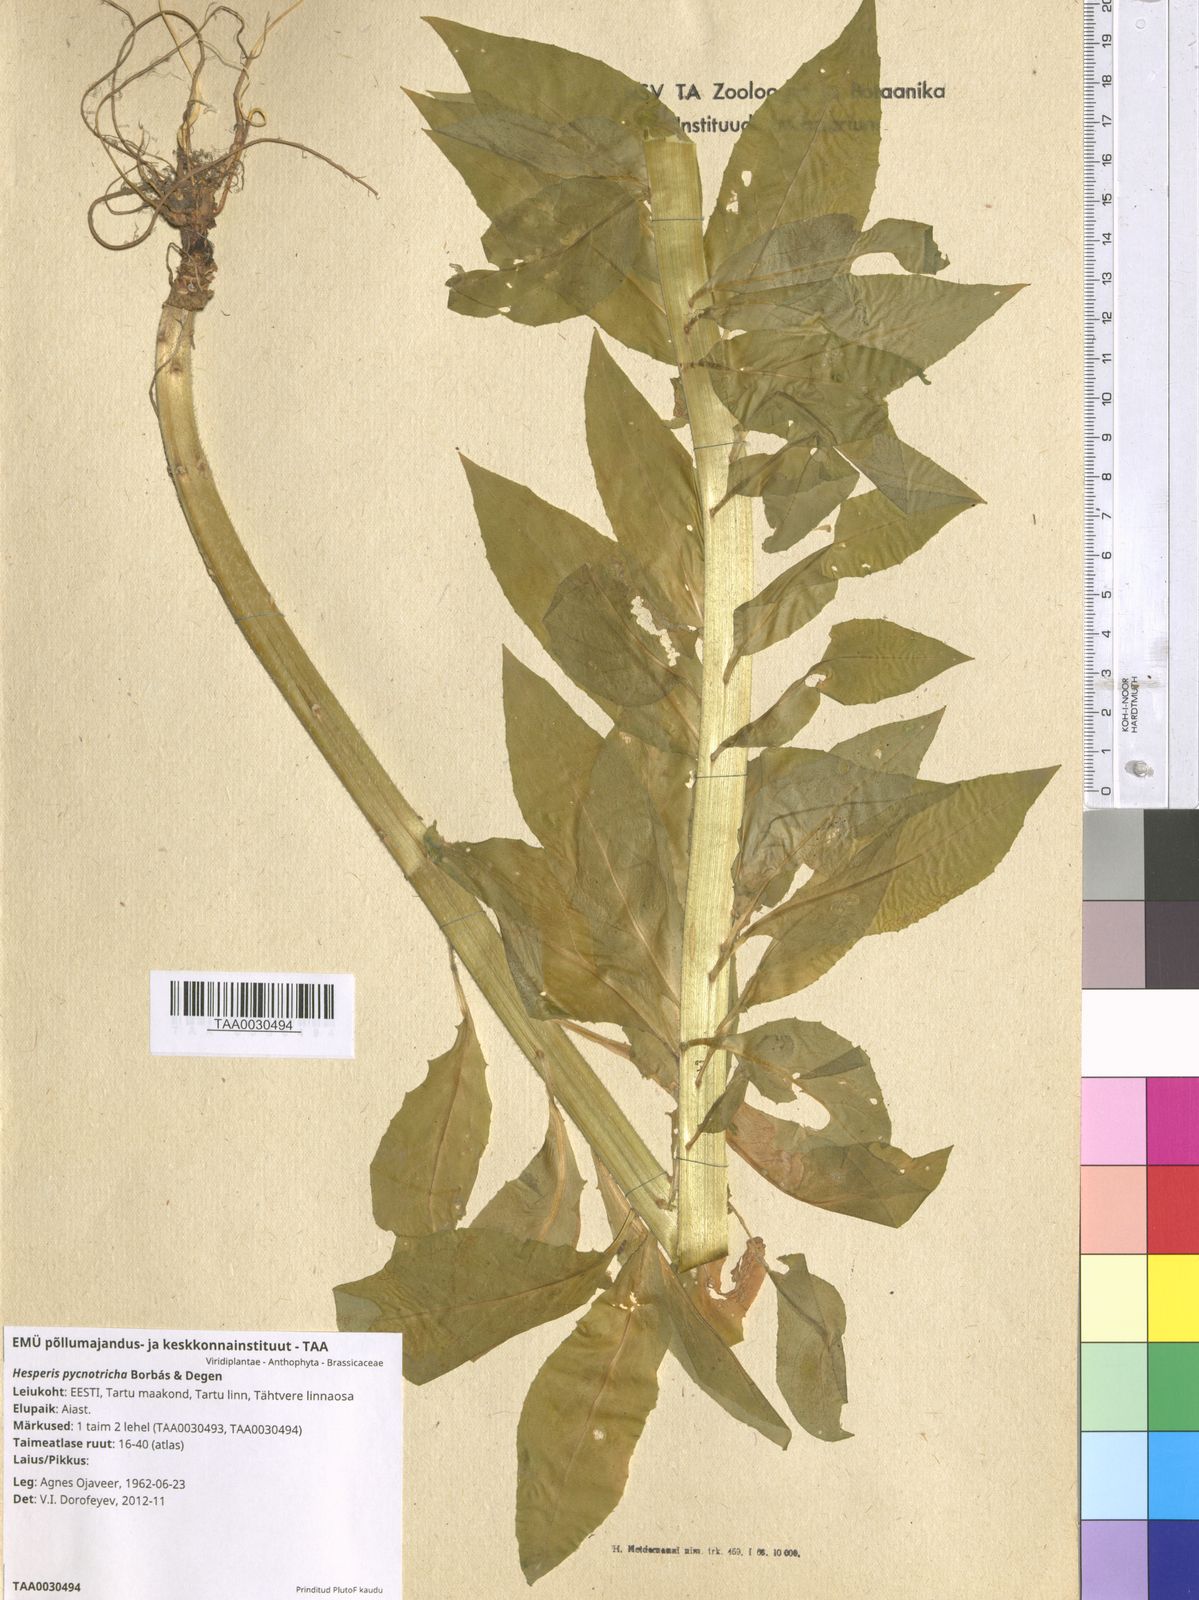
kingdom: Plantae
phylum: Tracheophyta
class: Magnoliopsida
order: Brassicales
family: Brassicaceae
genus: Hesperis
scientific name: Hesperis pycnotricha
